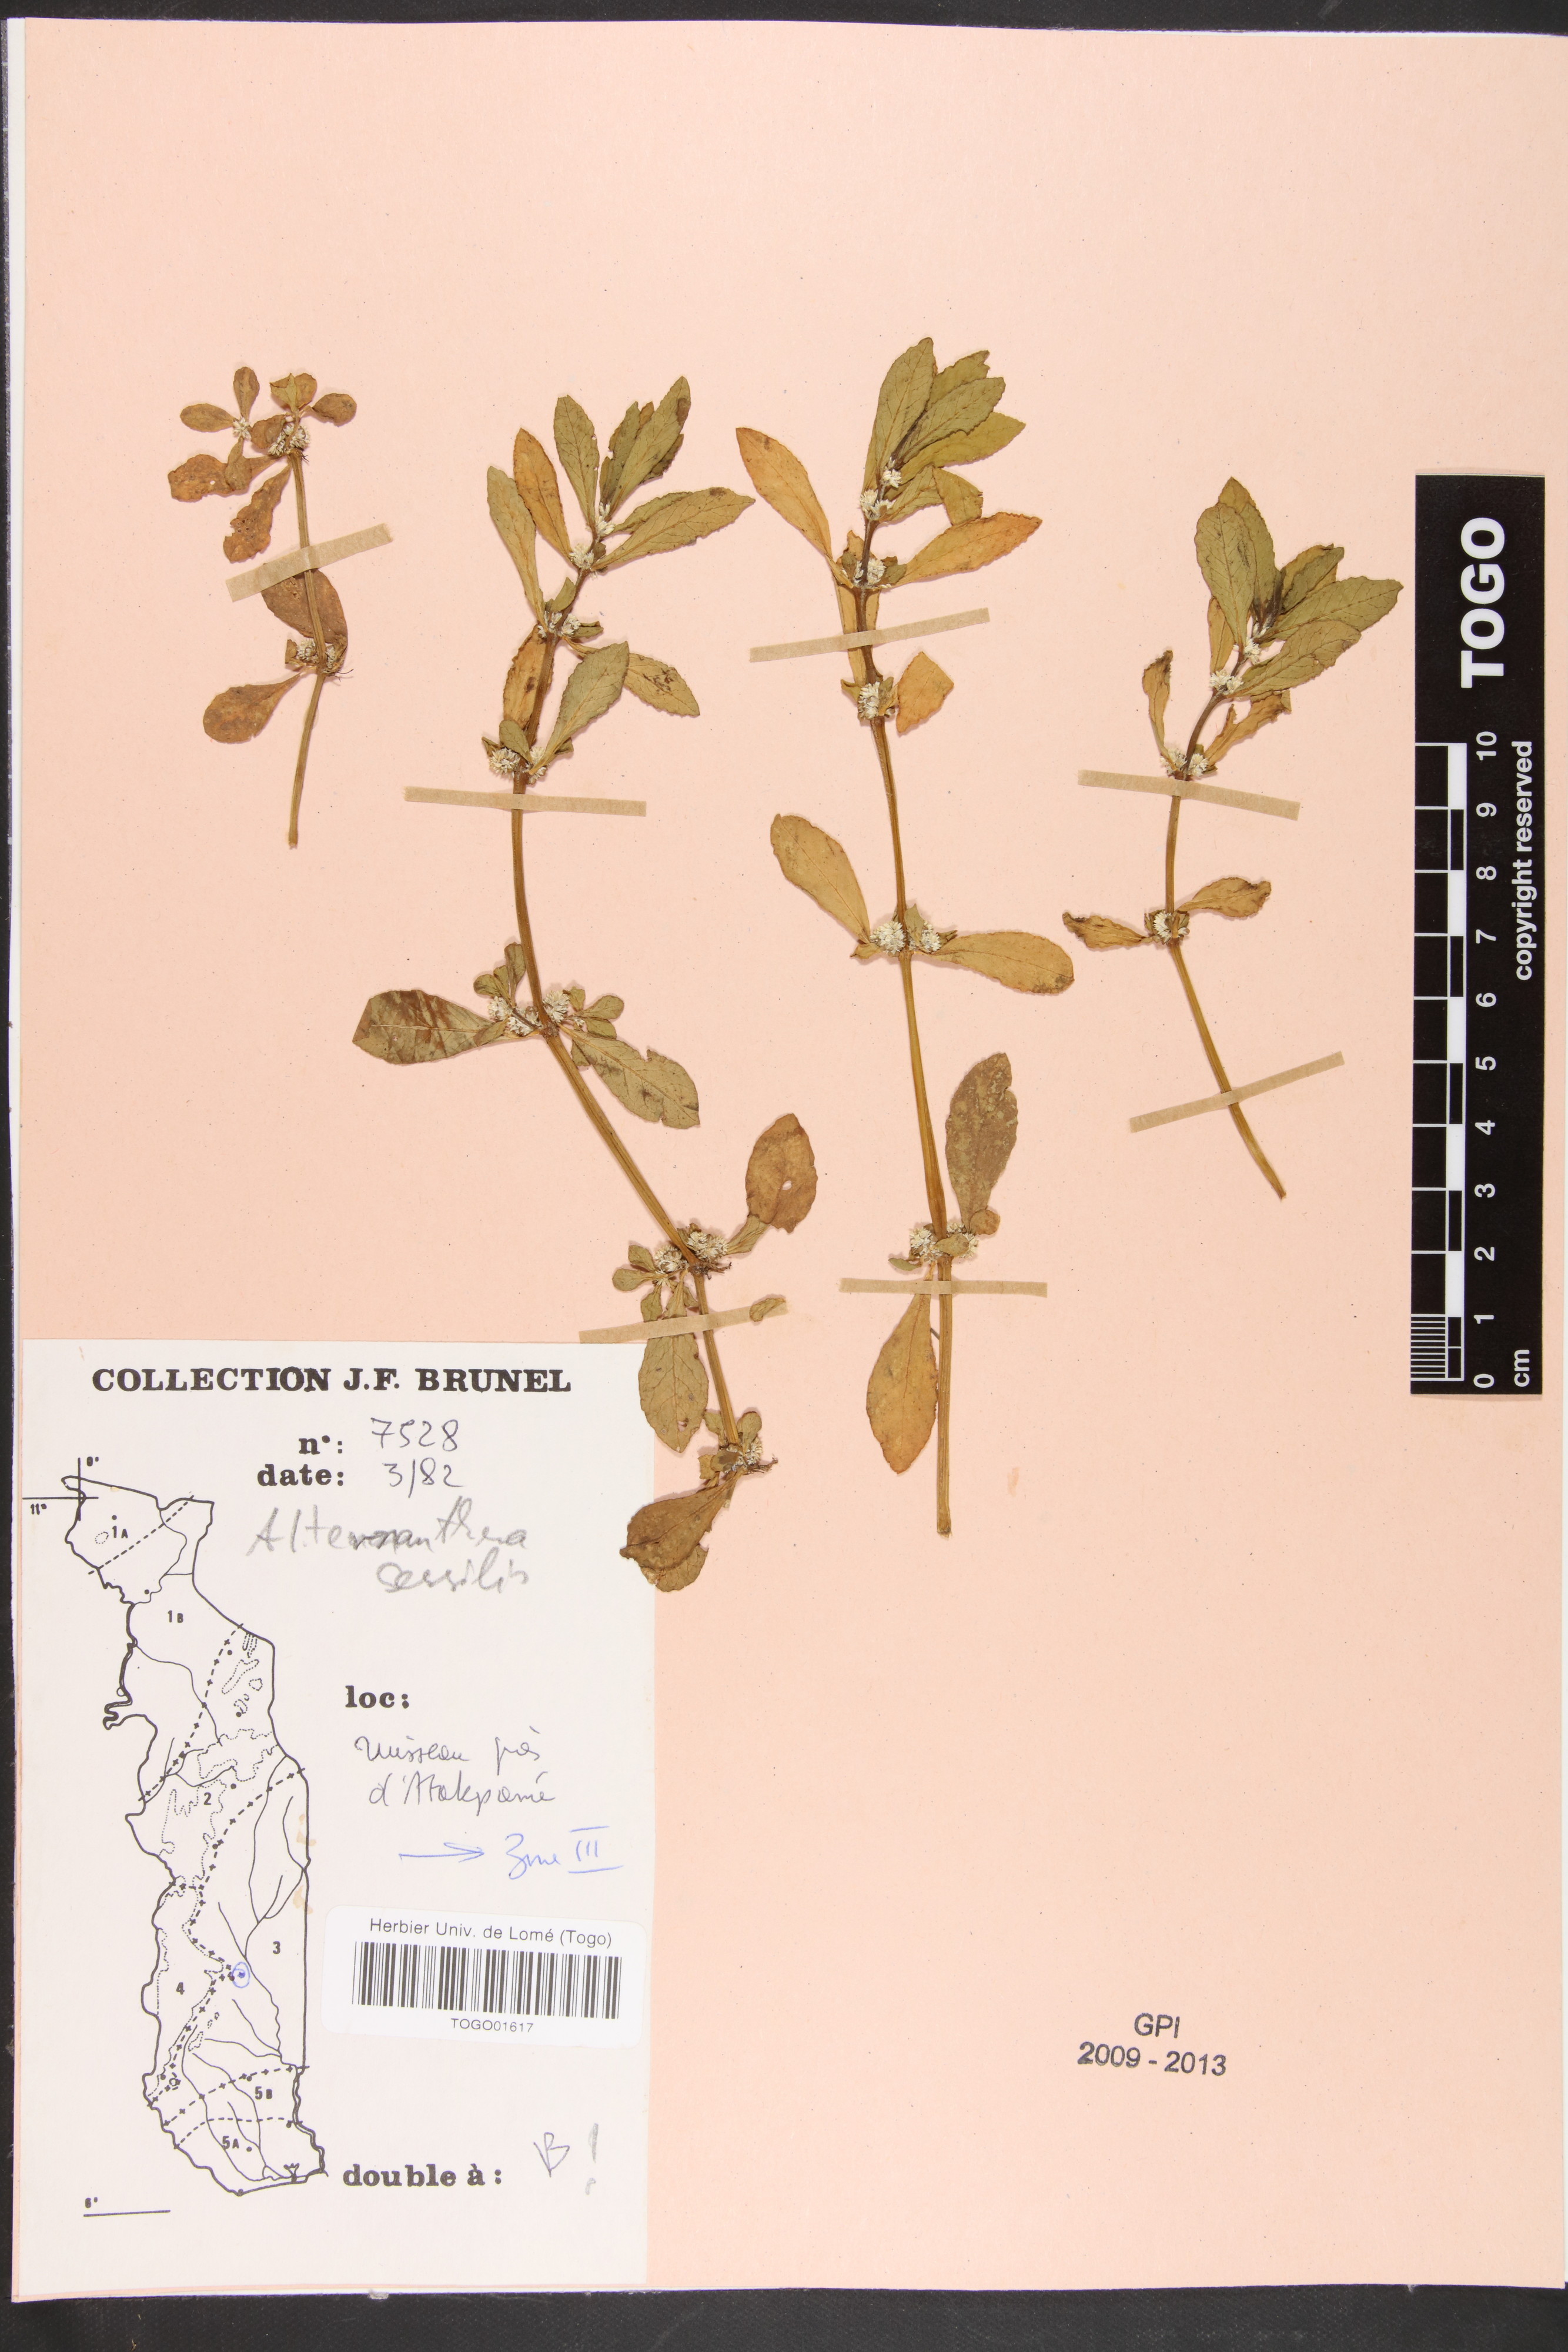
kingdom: Plantae
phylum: Tracheophyta
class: Magnoliopsida
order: Caryophyllales
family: Amaranthaceae
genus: Alternanthera
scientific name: Alternanthera sessilis
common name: Sessile joyweed
